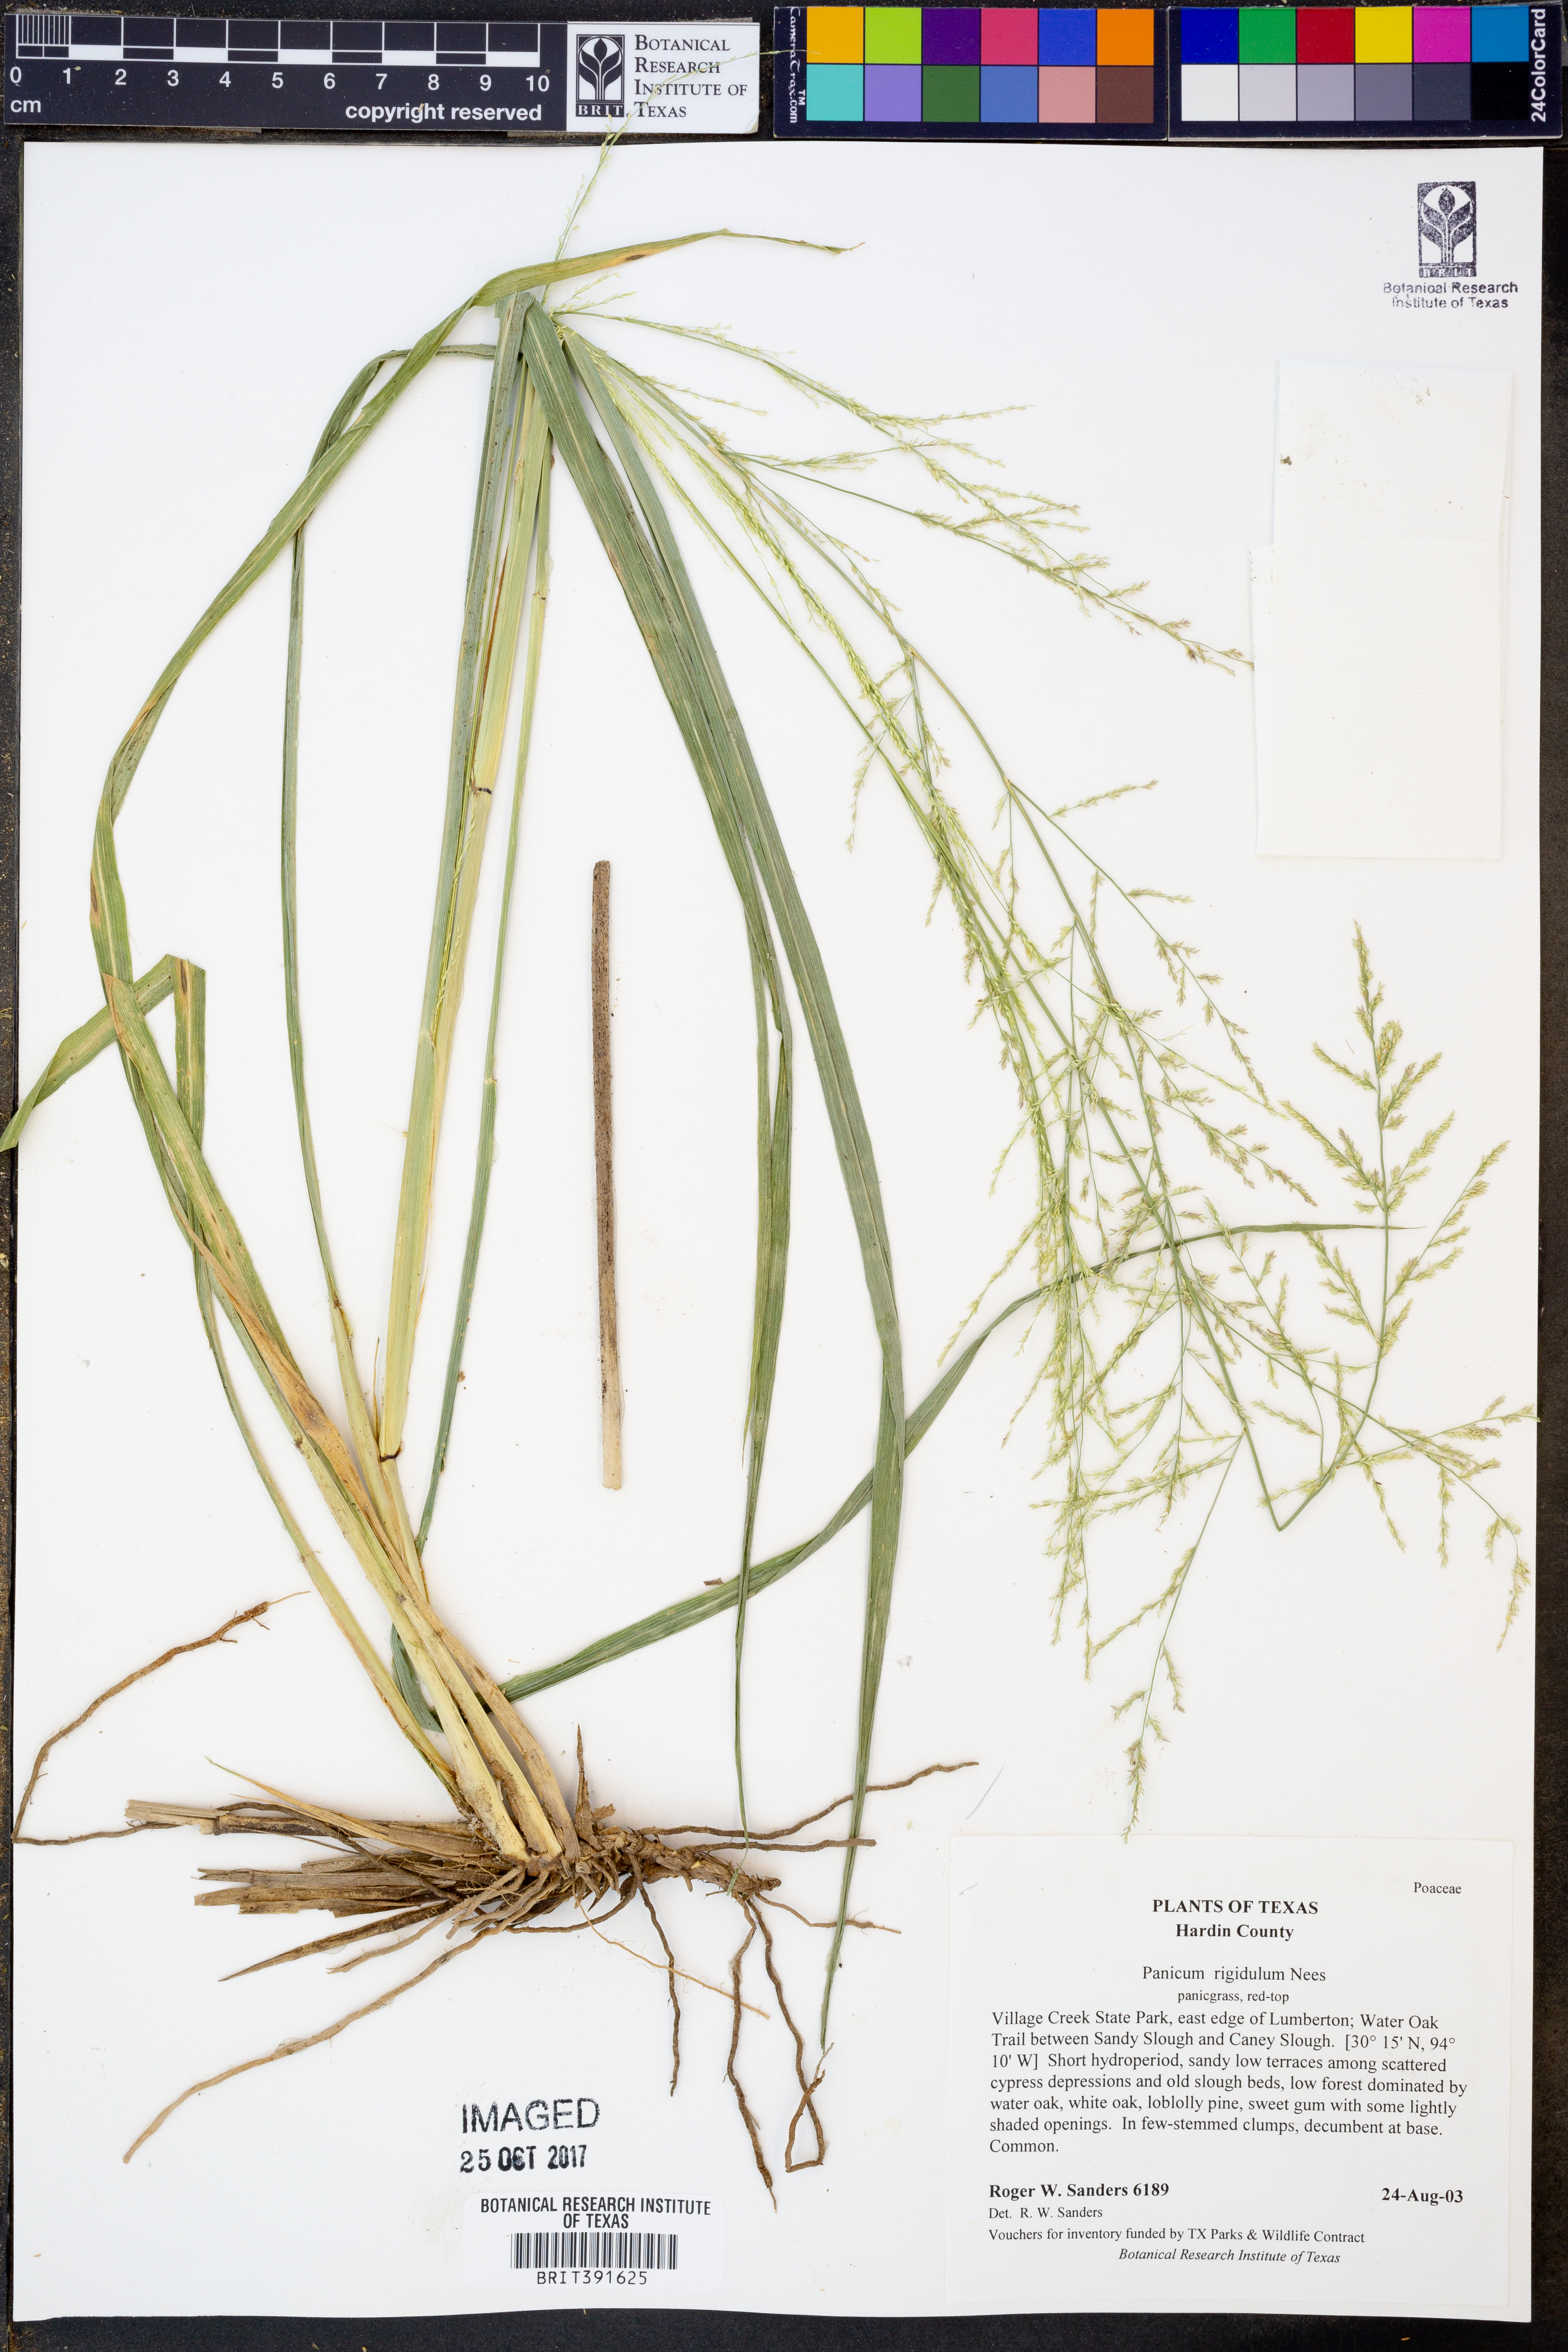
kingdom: Plantae
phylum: Tracheophyta
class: Liliopsida
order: Poales
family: Poaceae
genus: Coleataenia
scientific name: Coleataenia rigidula
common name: Redtop panicgrass
